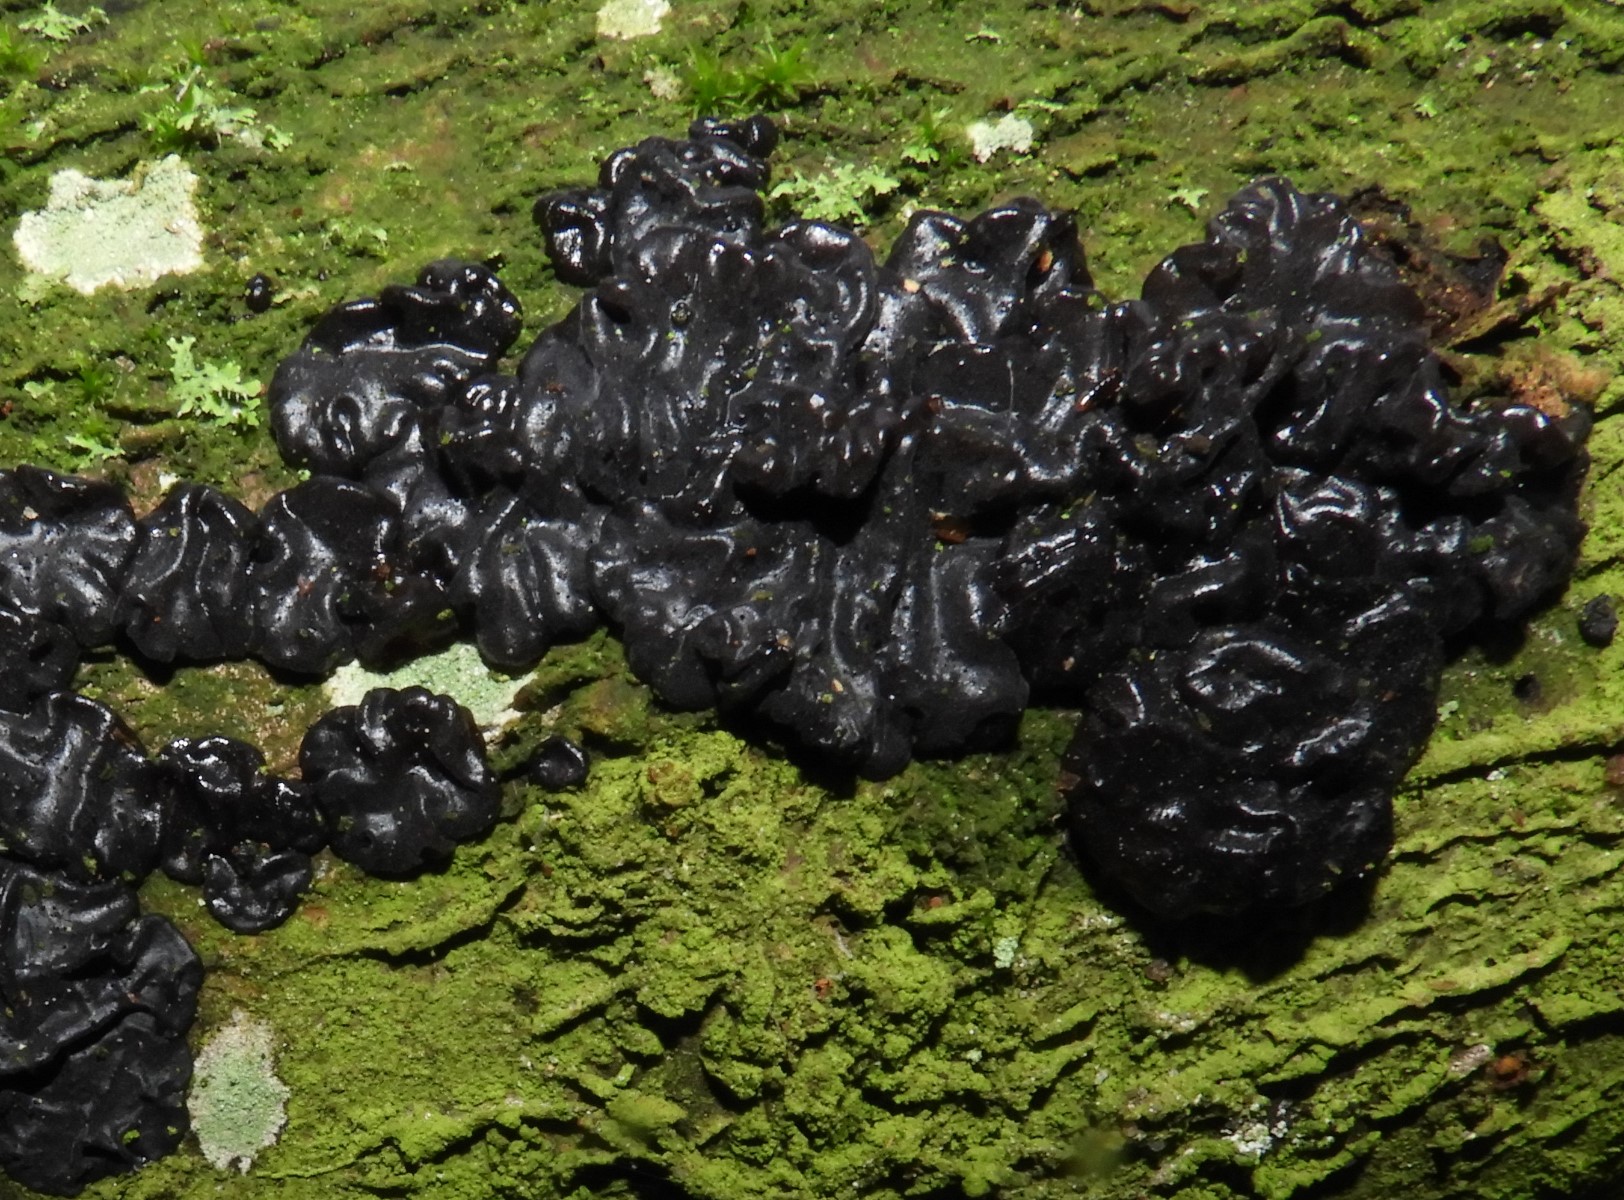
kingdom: Fungi
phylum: Basidiomycota
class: Agaricomycetes
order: Auriculariales
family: Auriculariaceae
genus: Exidia
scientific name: Exidia nigricans
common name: almindelig bævretop
